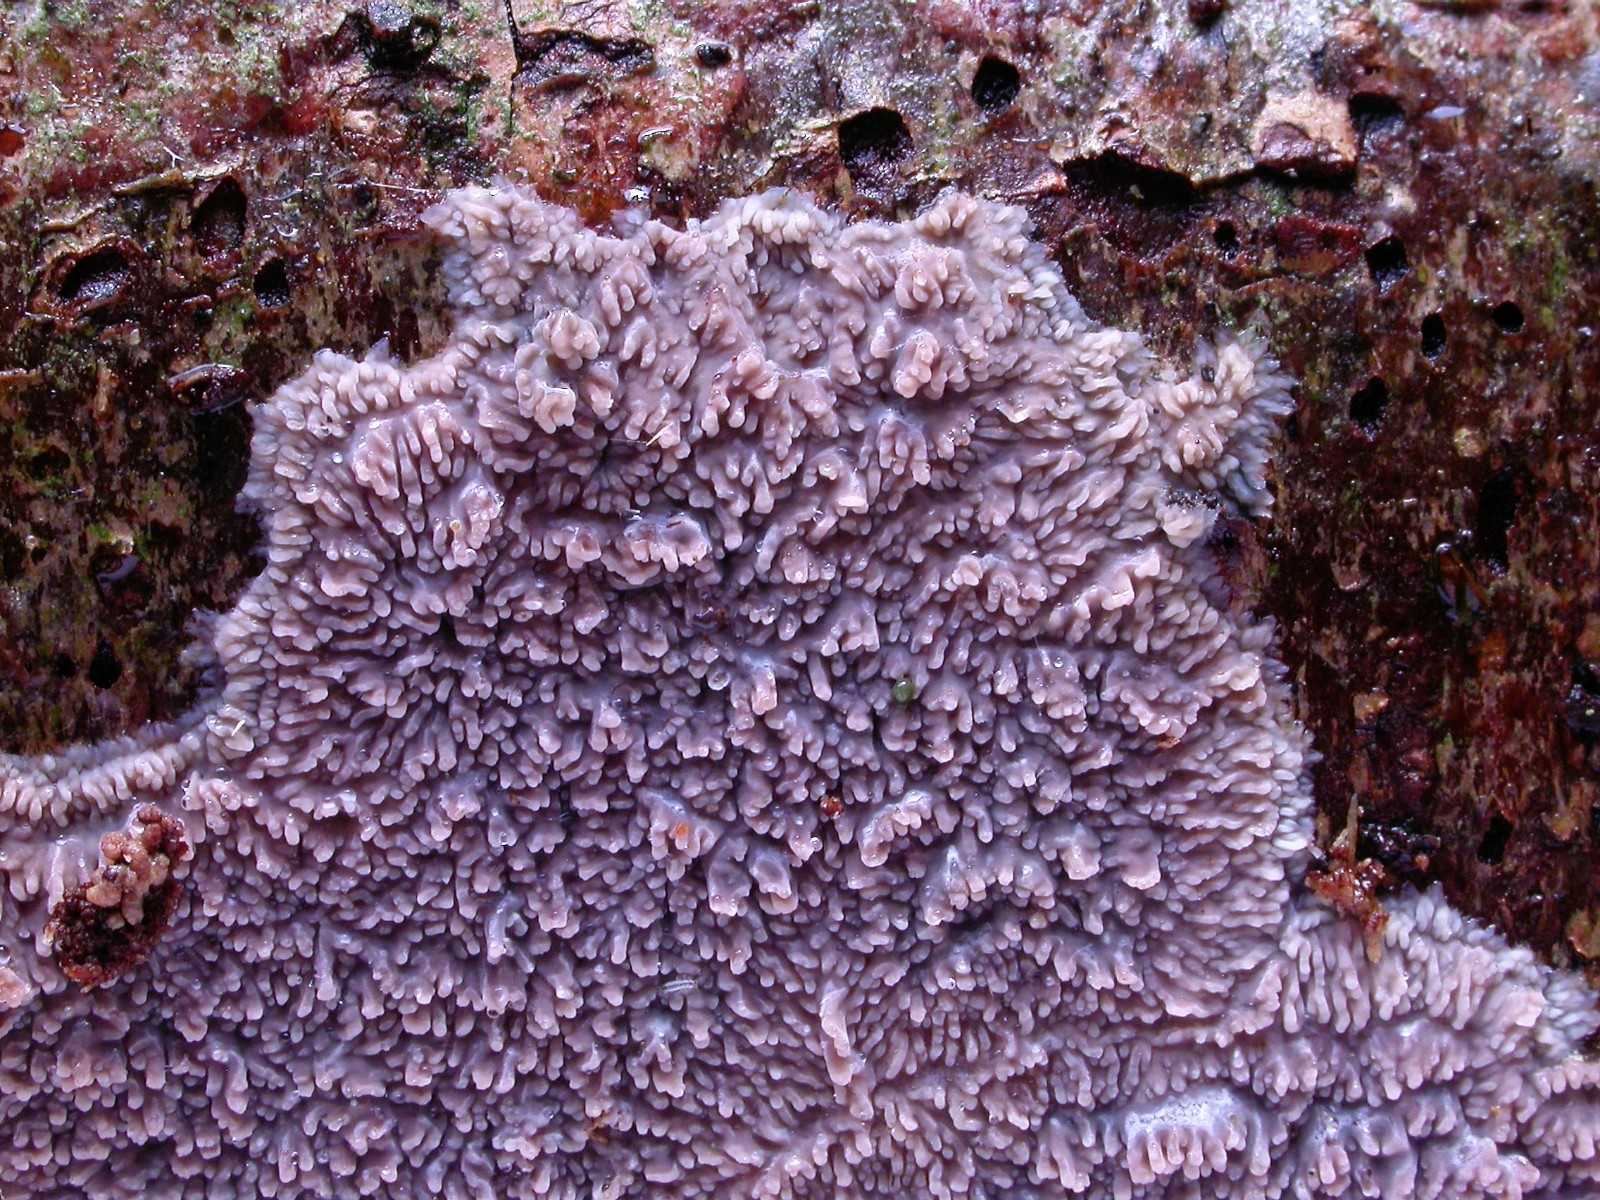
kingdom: Fungi
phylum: Basidiomycota
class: Agaricomycetes
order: Polyporales
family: Meruliaceae
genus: Phlebia
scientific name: Phlebia radiata
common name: stråle-åresvamp
